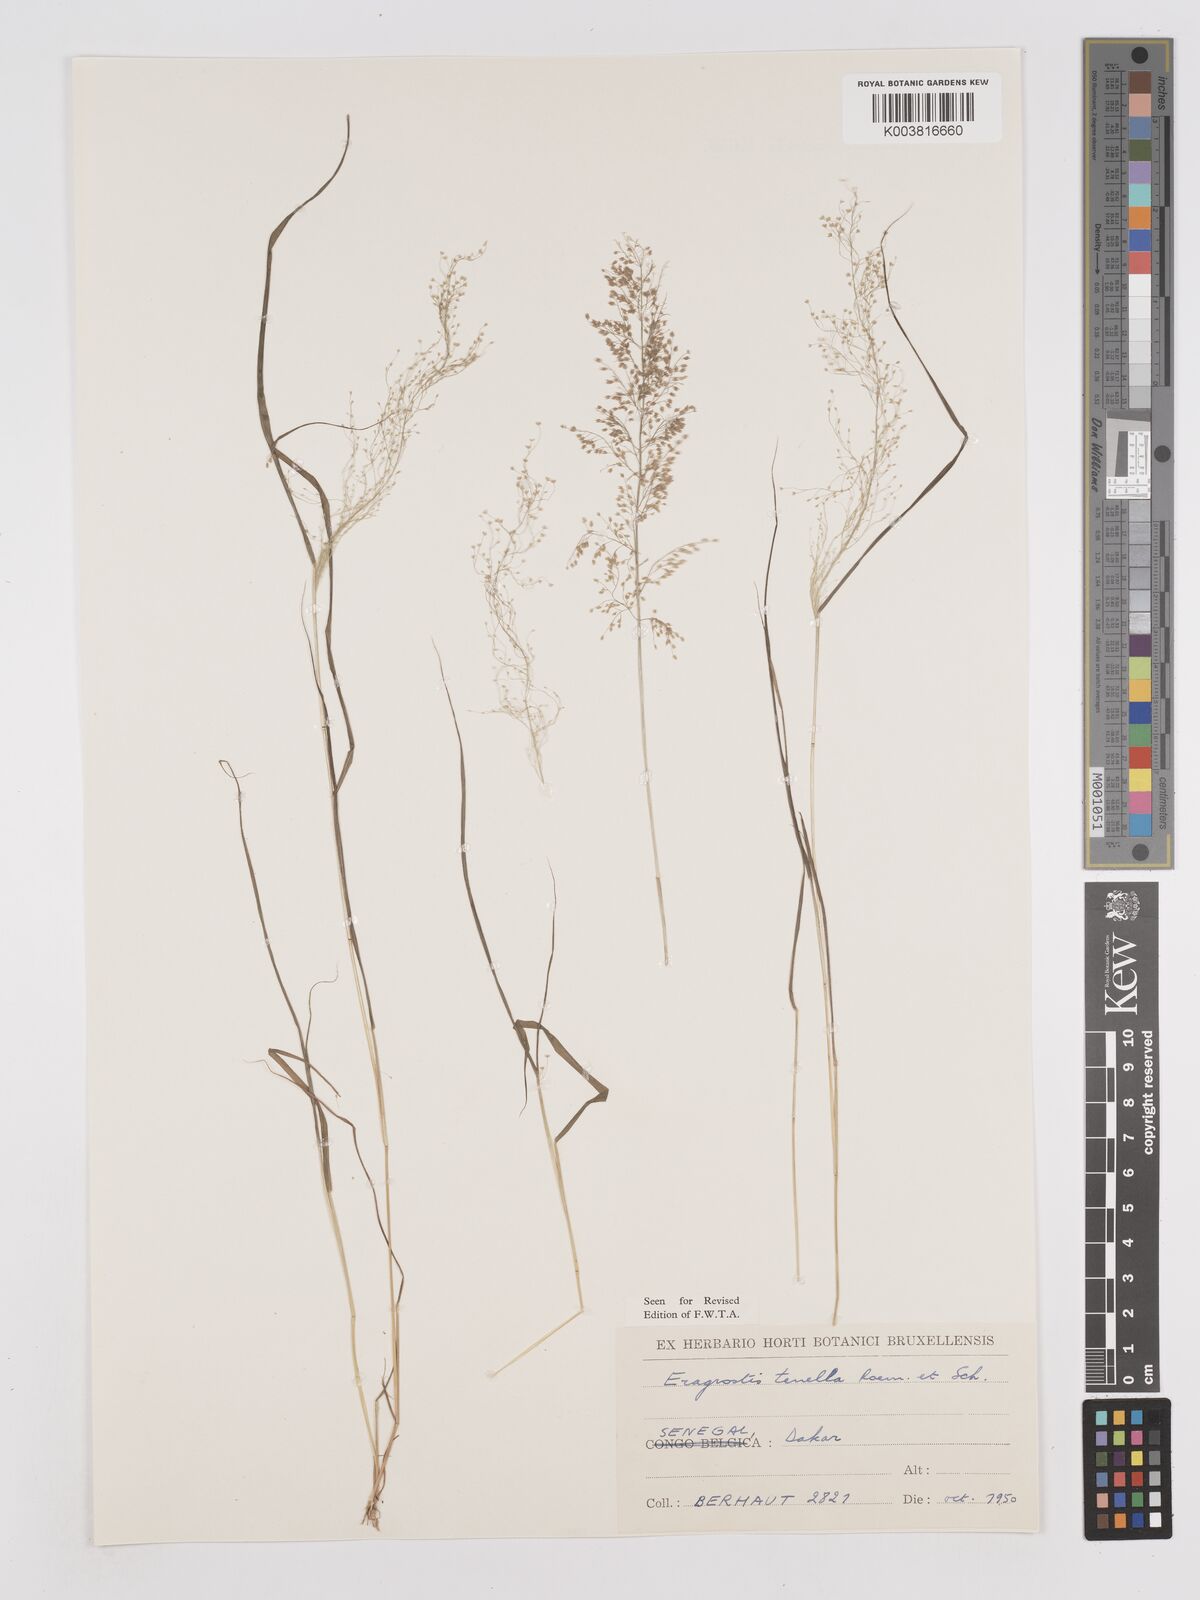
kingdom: Plantae
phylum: Tracheophyta
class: Liliopsida
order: Poales
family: Poaceae
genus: Eragrostis
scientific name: Eragrostis tenella
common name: Japanese lovegrass
